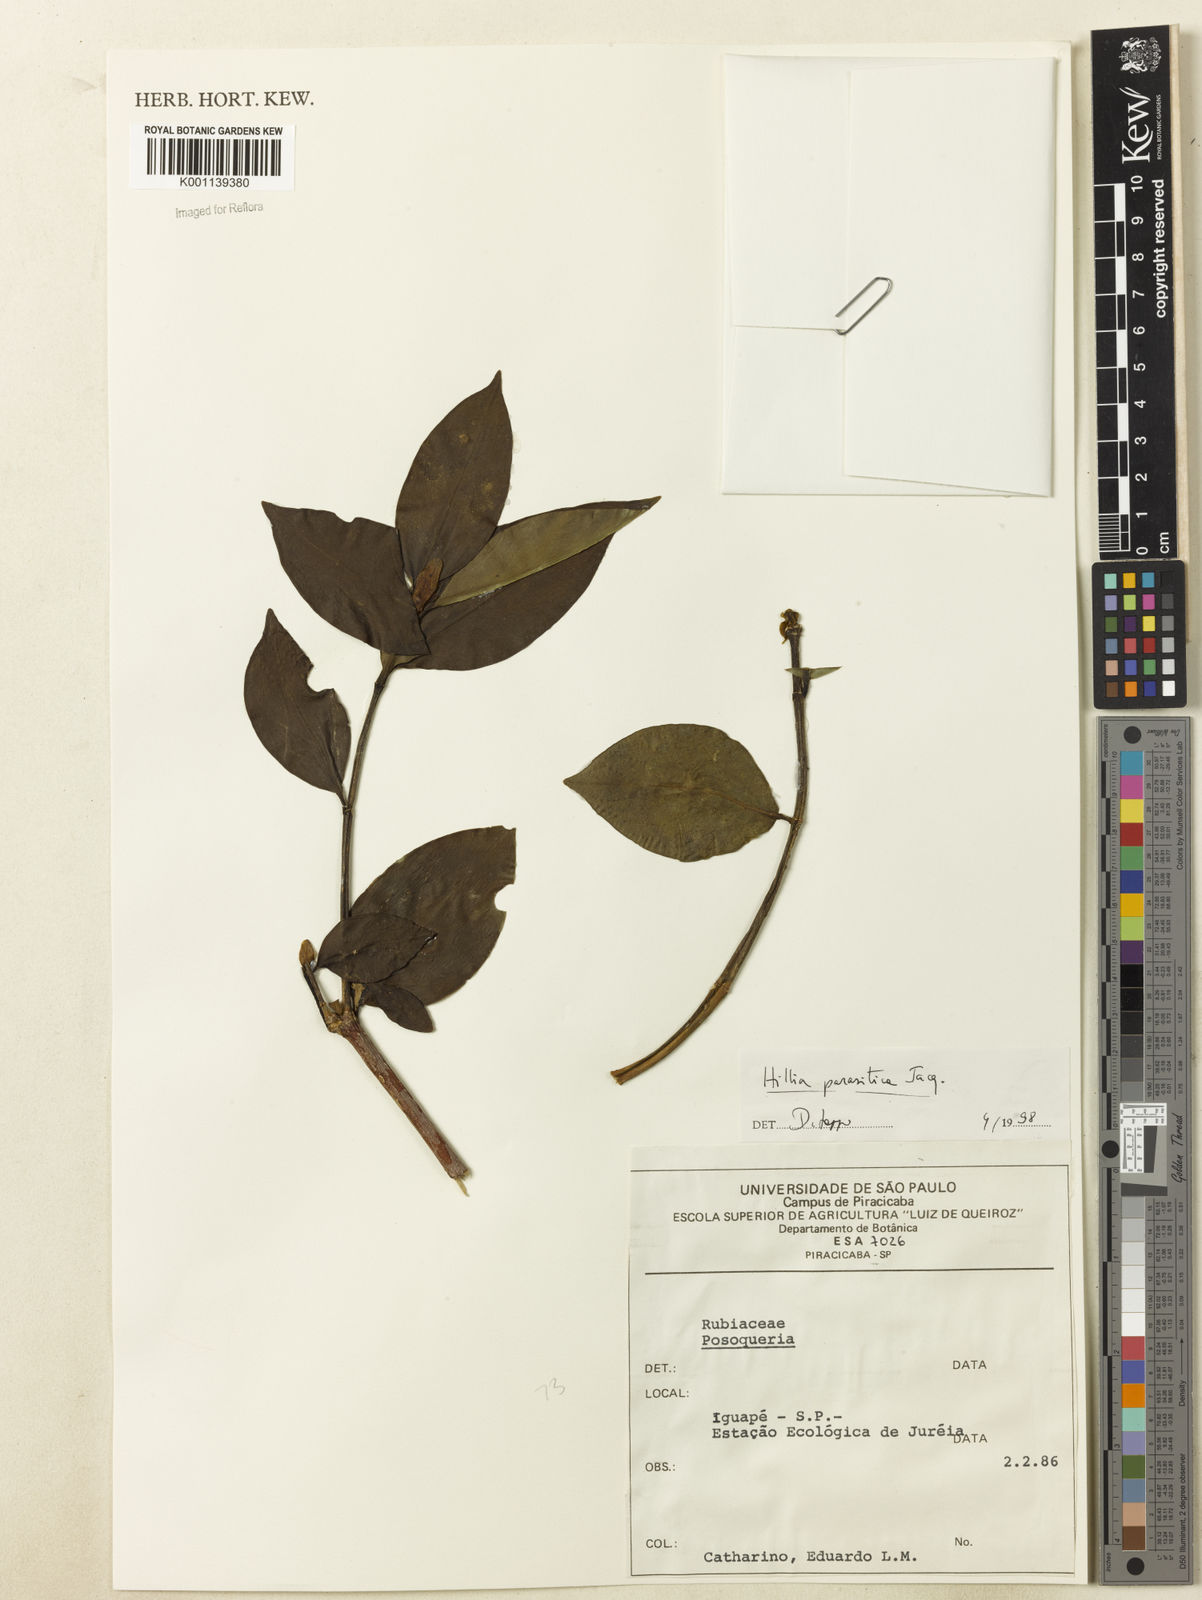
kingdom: Plantae
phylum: Tracheophyta
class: Magnoliopsida
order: Gentianales
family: Rubiaceae
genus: Hillia
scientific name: Hillia parasitica
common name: Morning star
